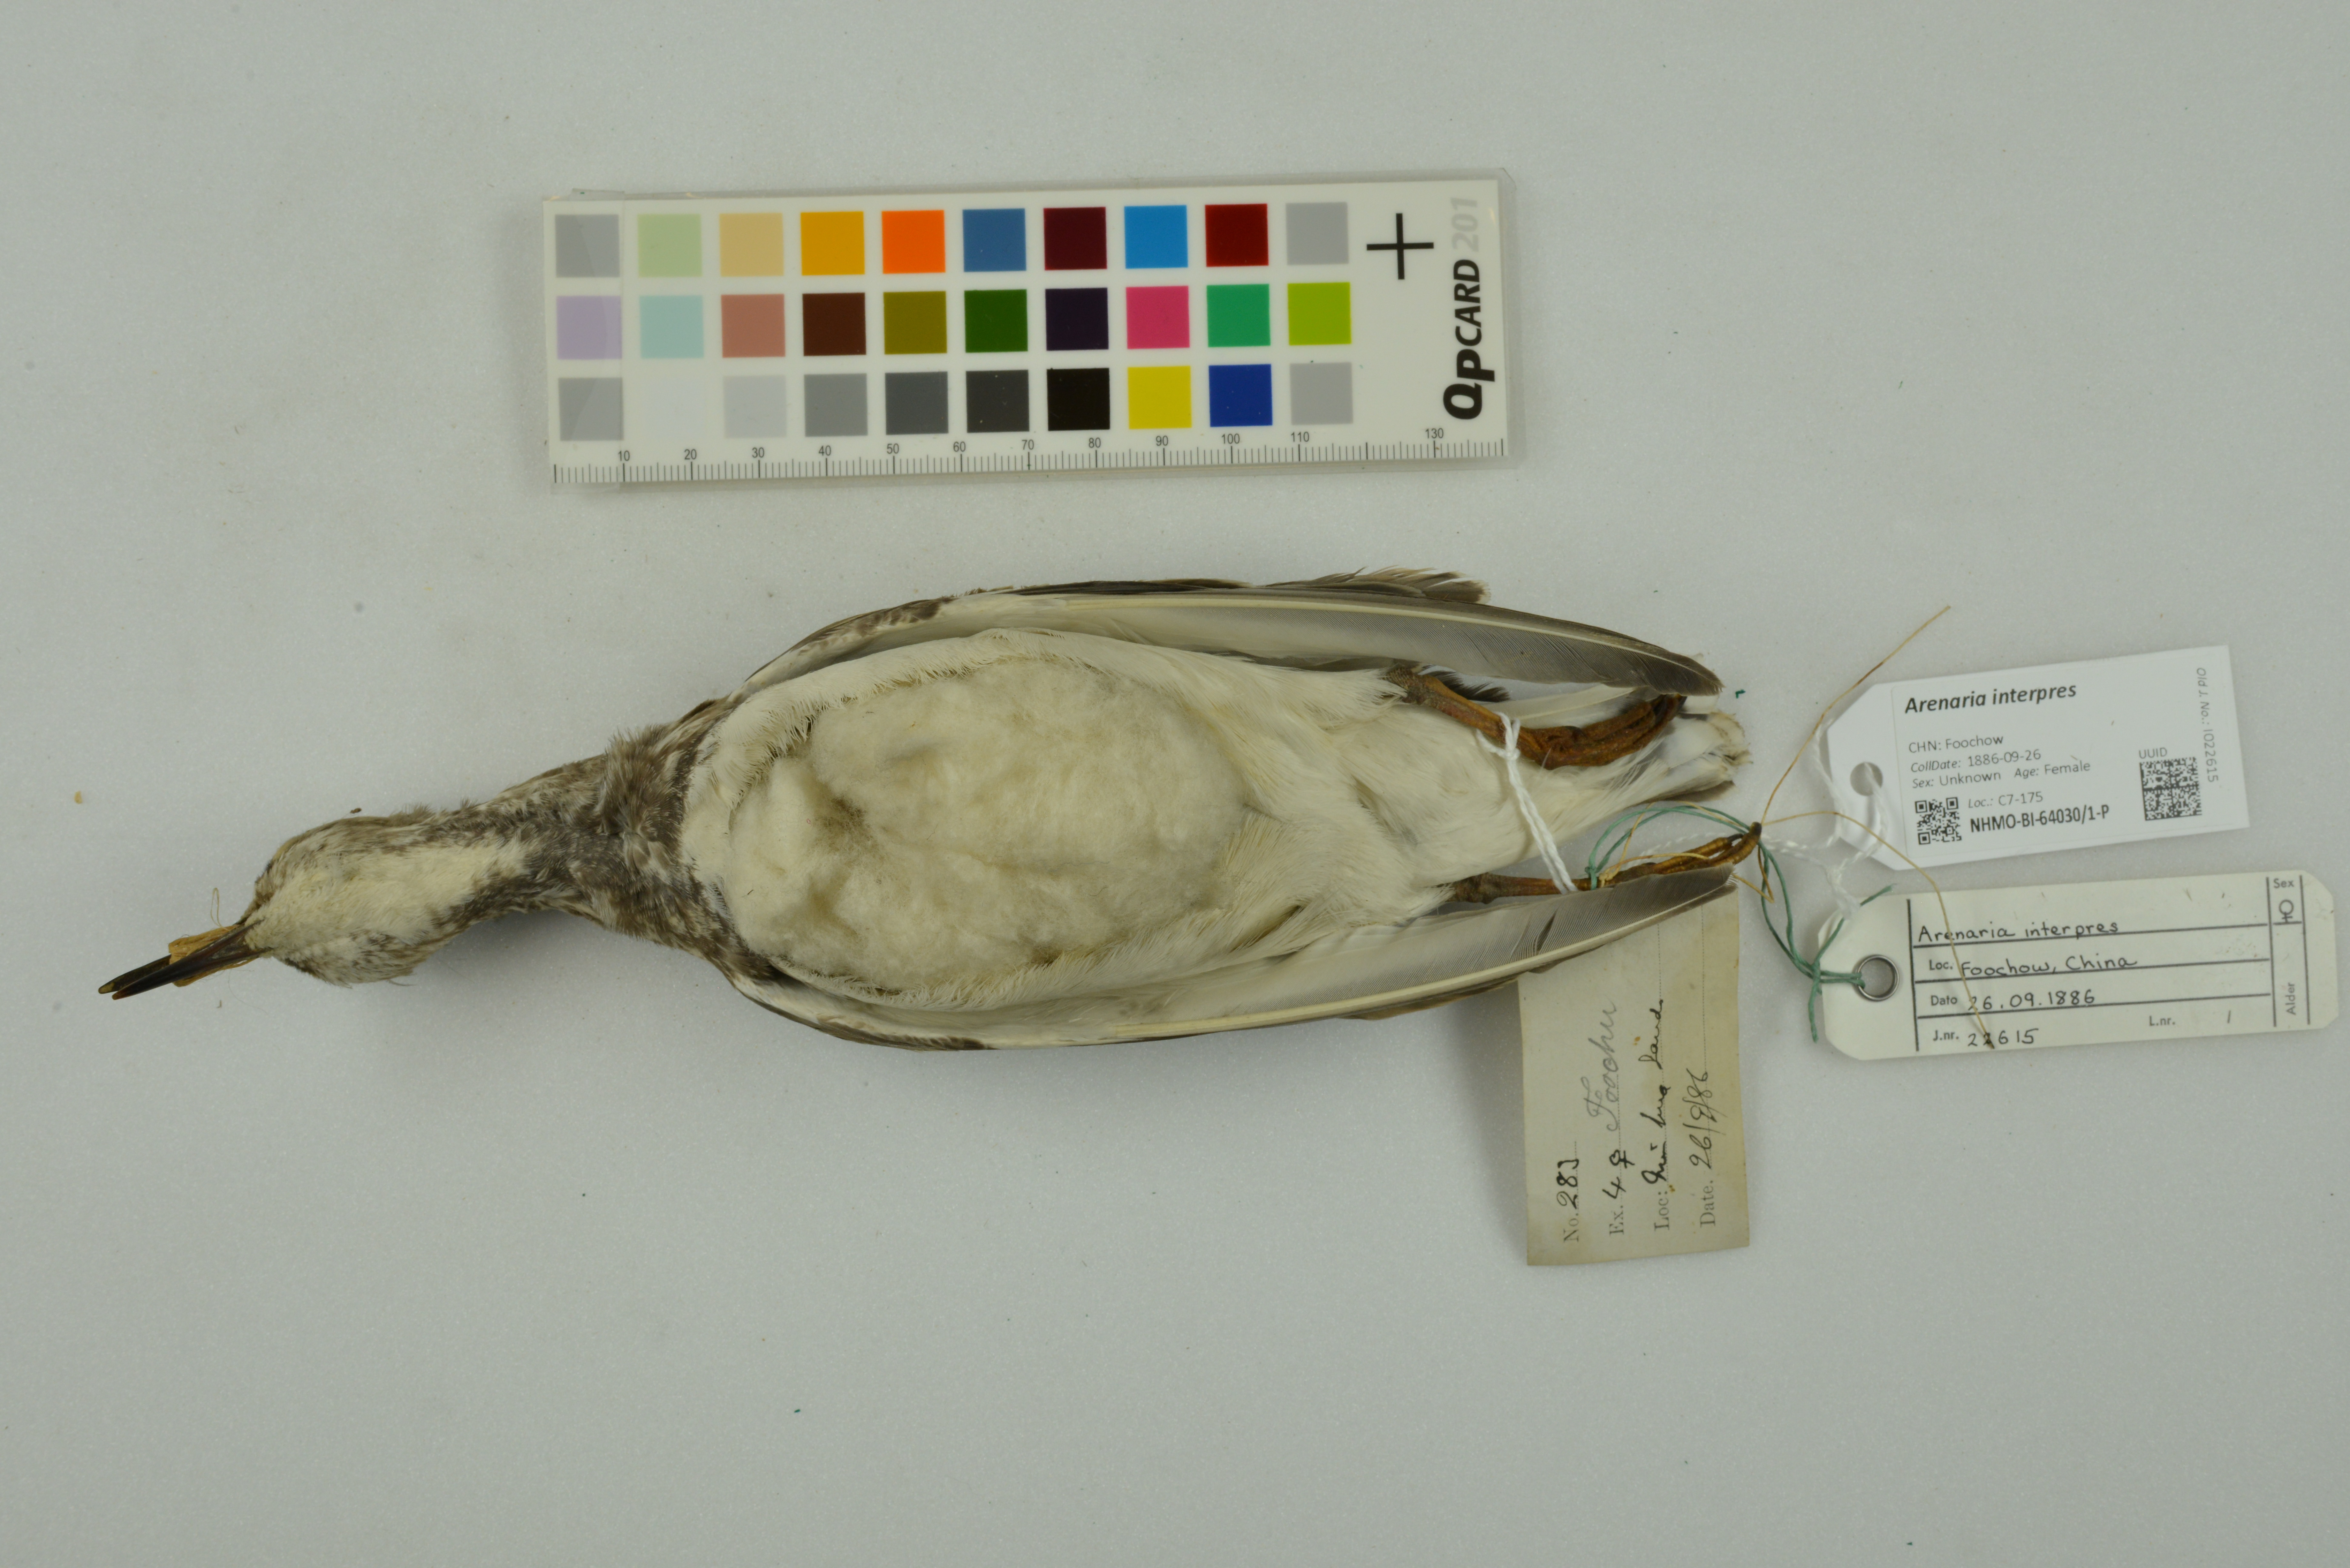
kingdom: Animalia
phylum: Chordata
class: Aves
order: Charadriiformes
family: Scolopacidae
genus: Arenaria
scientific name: Arenaria interpres
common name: Ruddy turnstone
